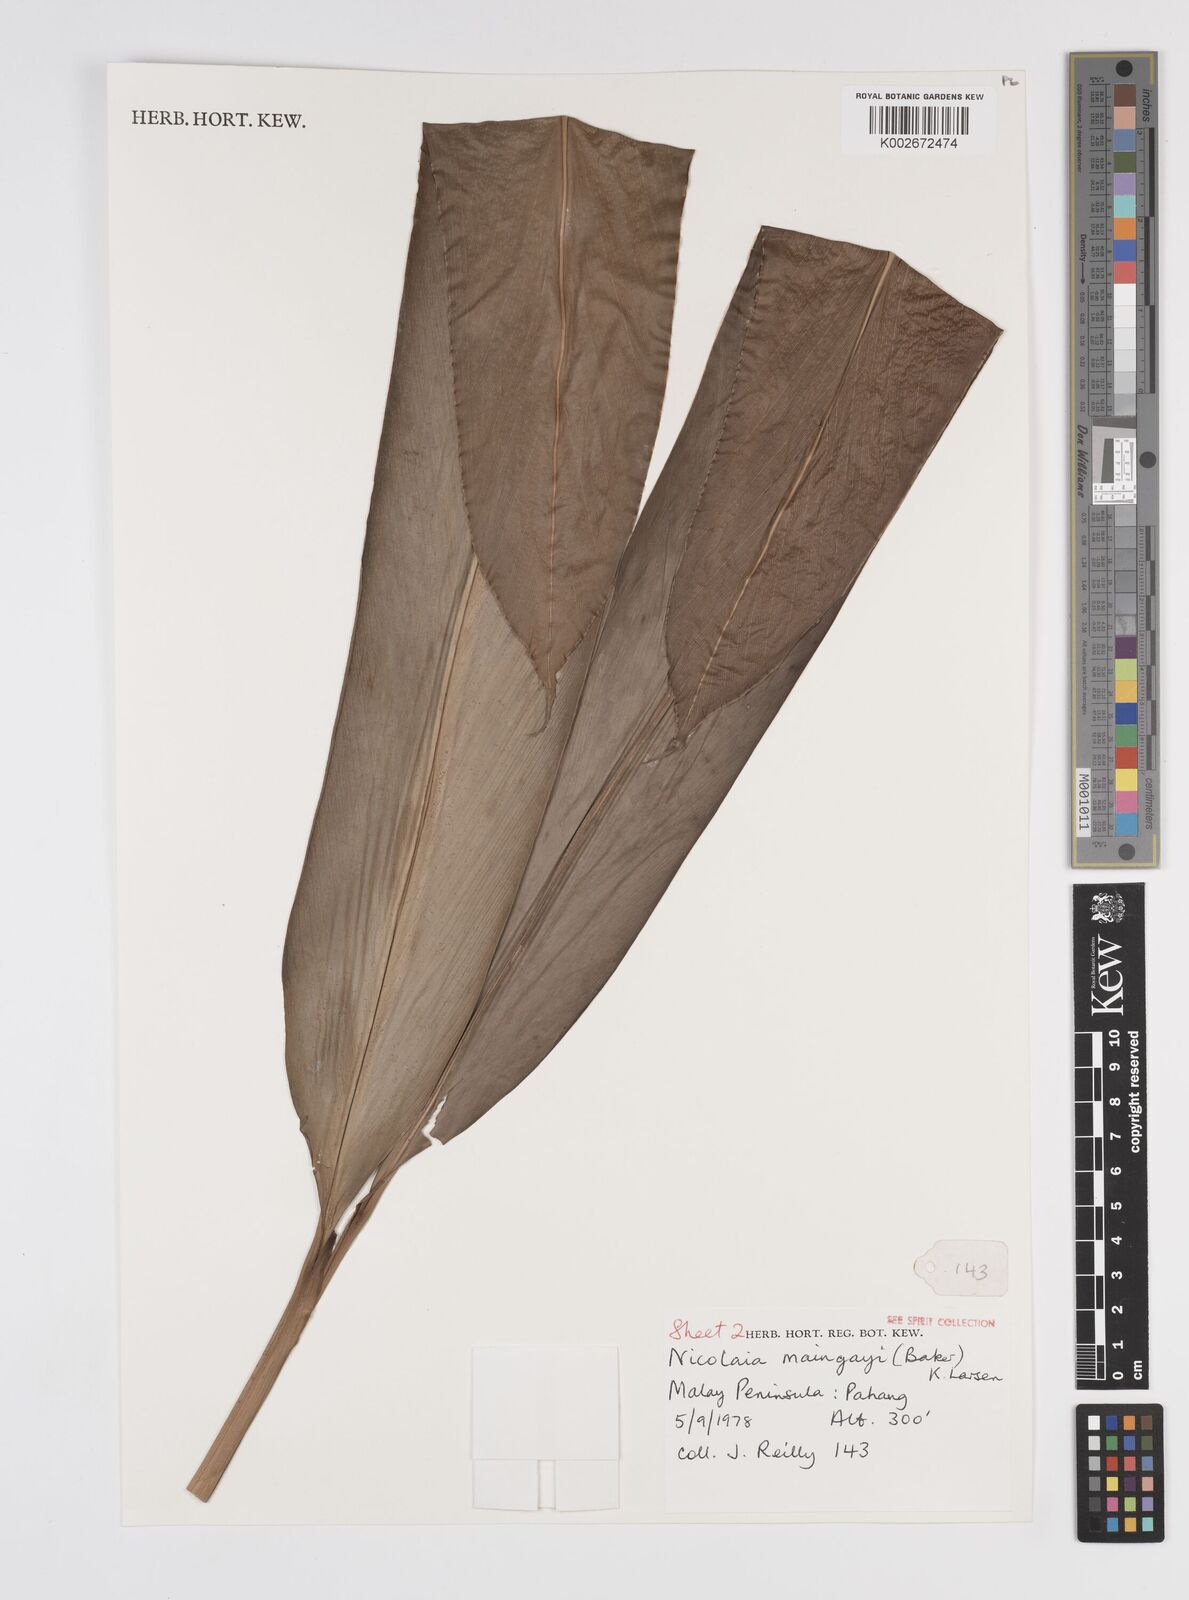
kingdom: Plantae
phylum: Tracheophyta
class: Liliopsida
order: Zingiberales
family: Zingiberaceae
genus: Etlingera
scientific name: Etlingera maingayi
